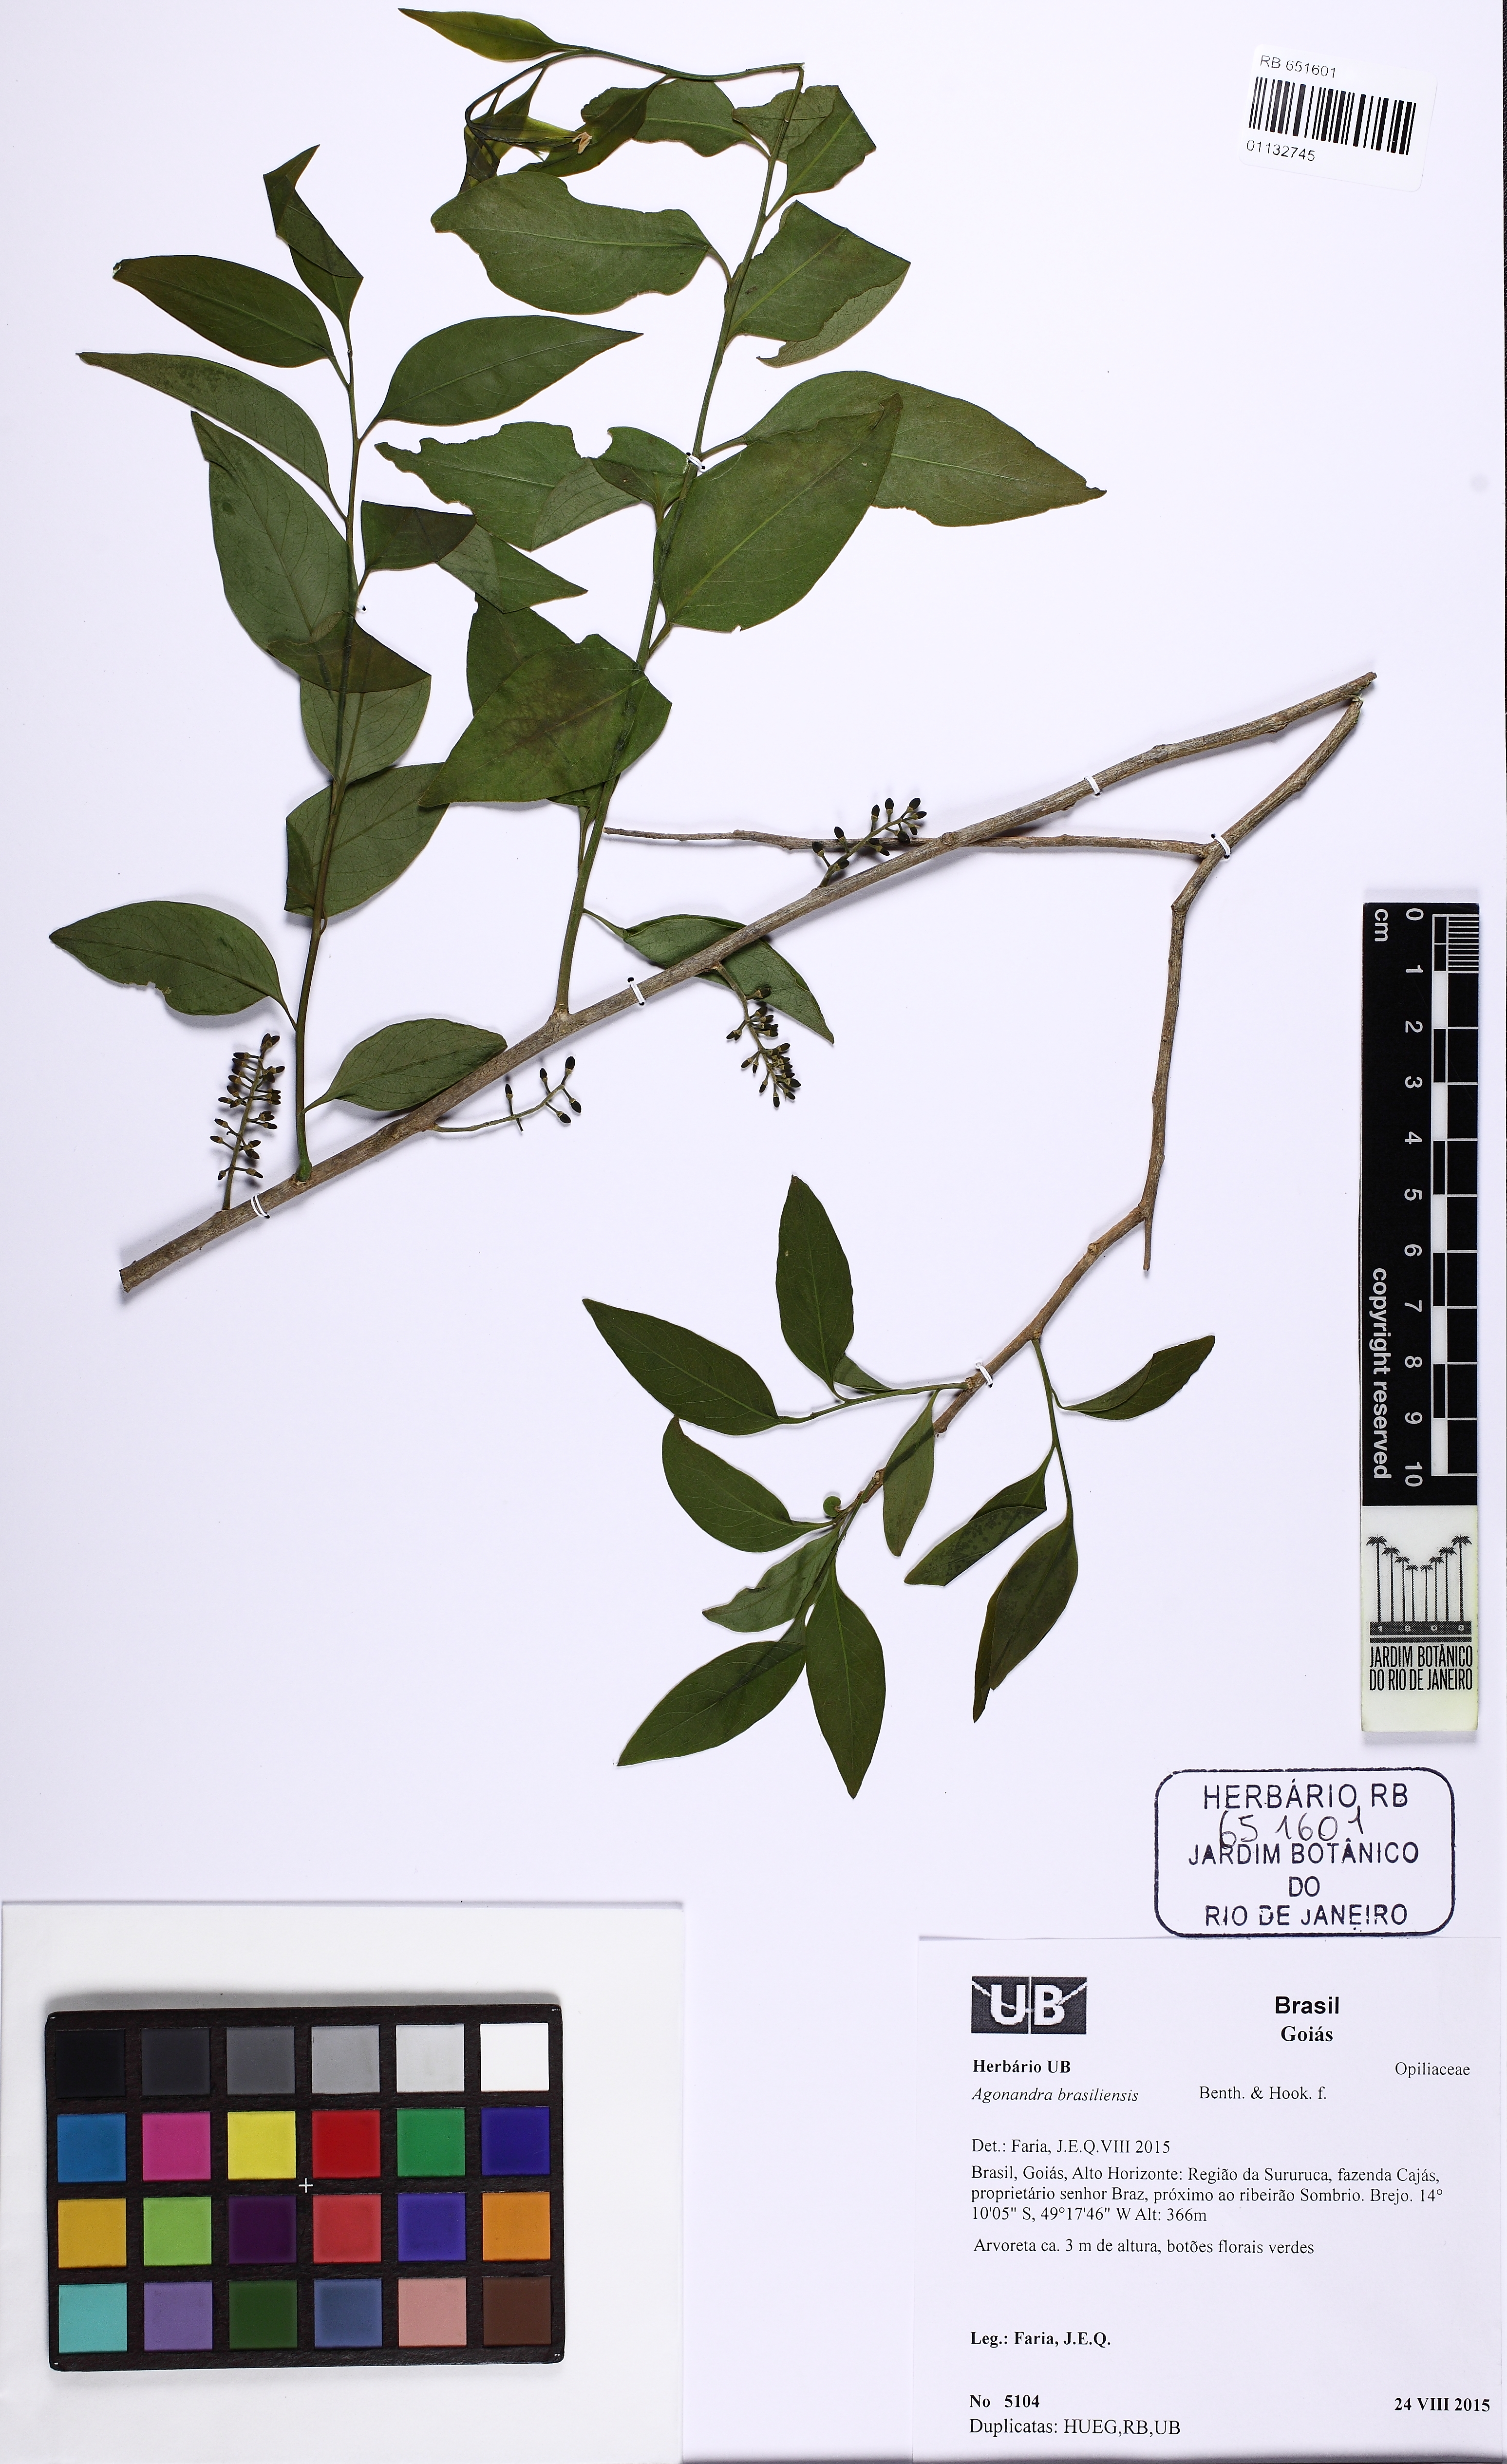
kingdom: Plantae
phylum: Tracheophyta
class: Magnoliopsida
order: Santalales
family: Opiliaceae
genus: Agonandra
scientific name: Agonandra brasiliensis
